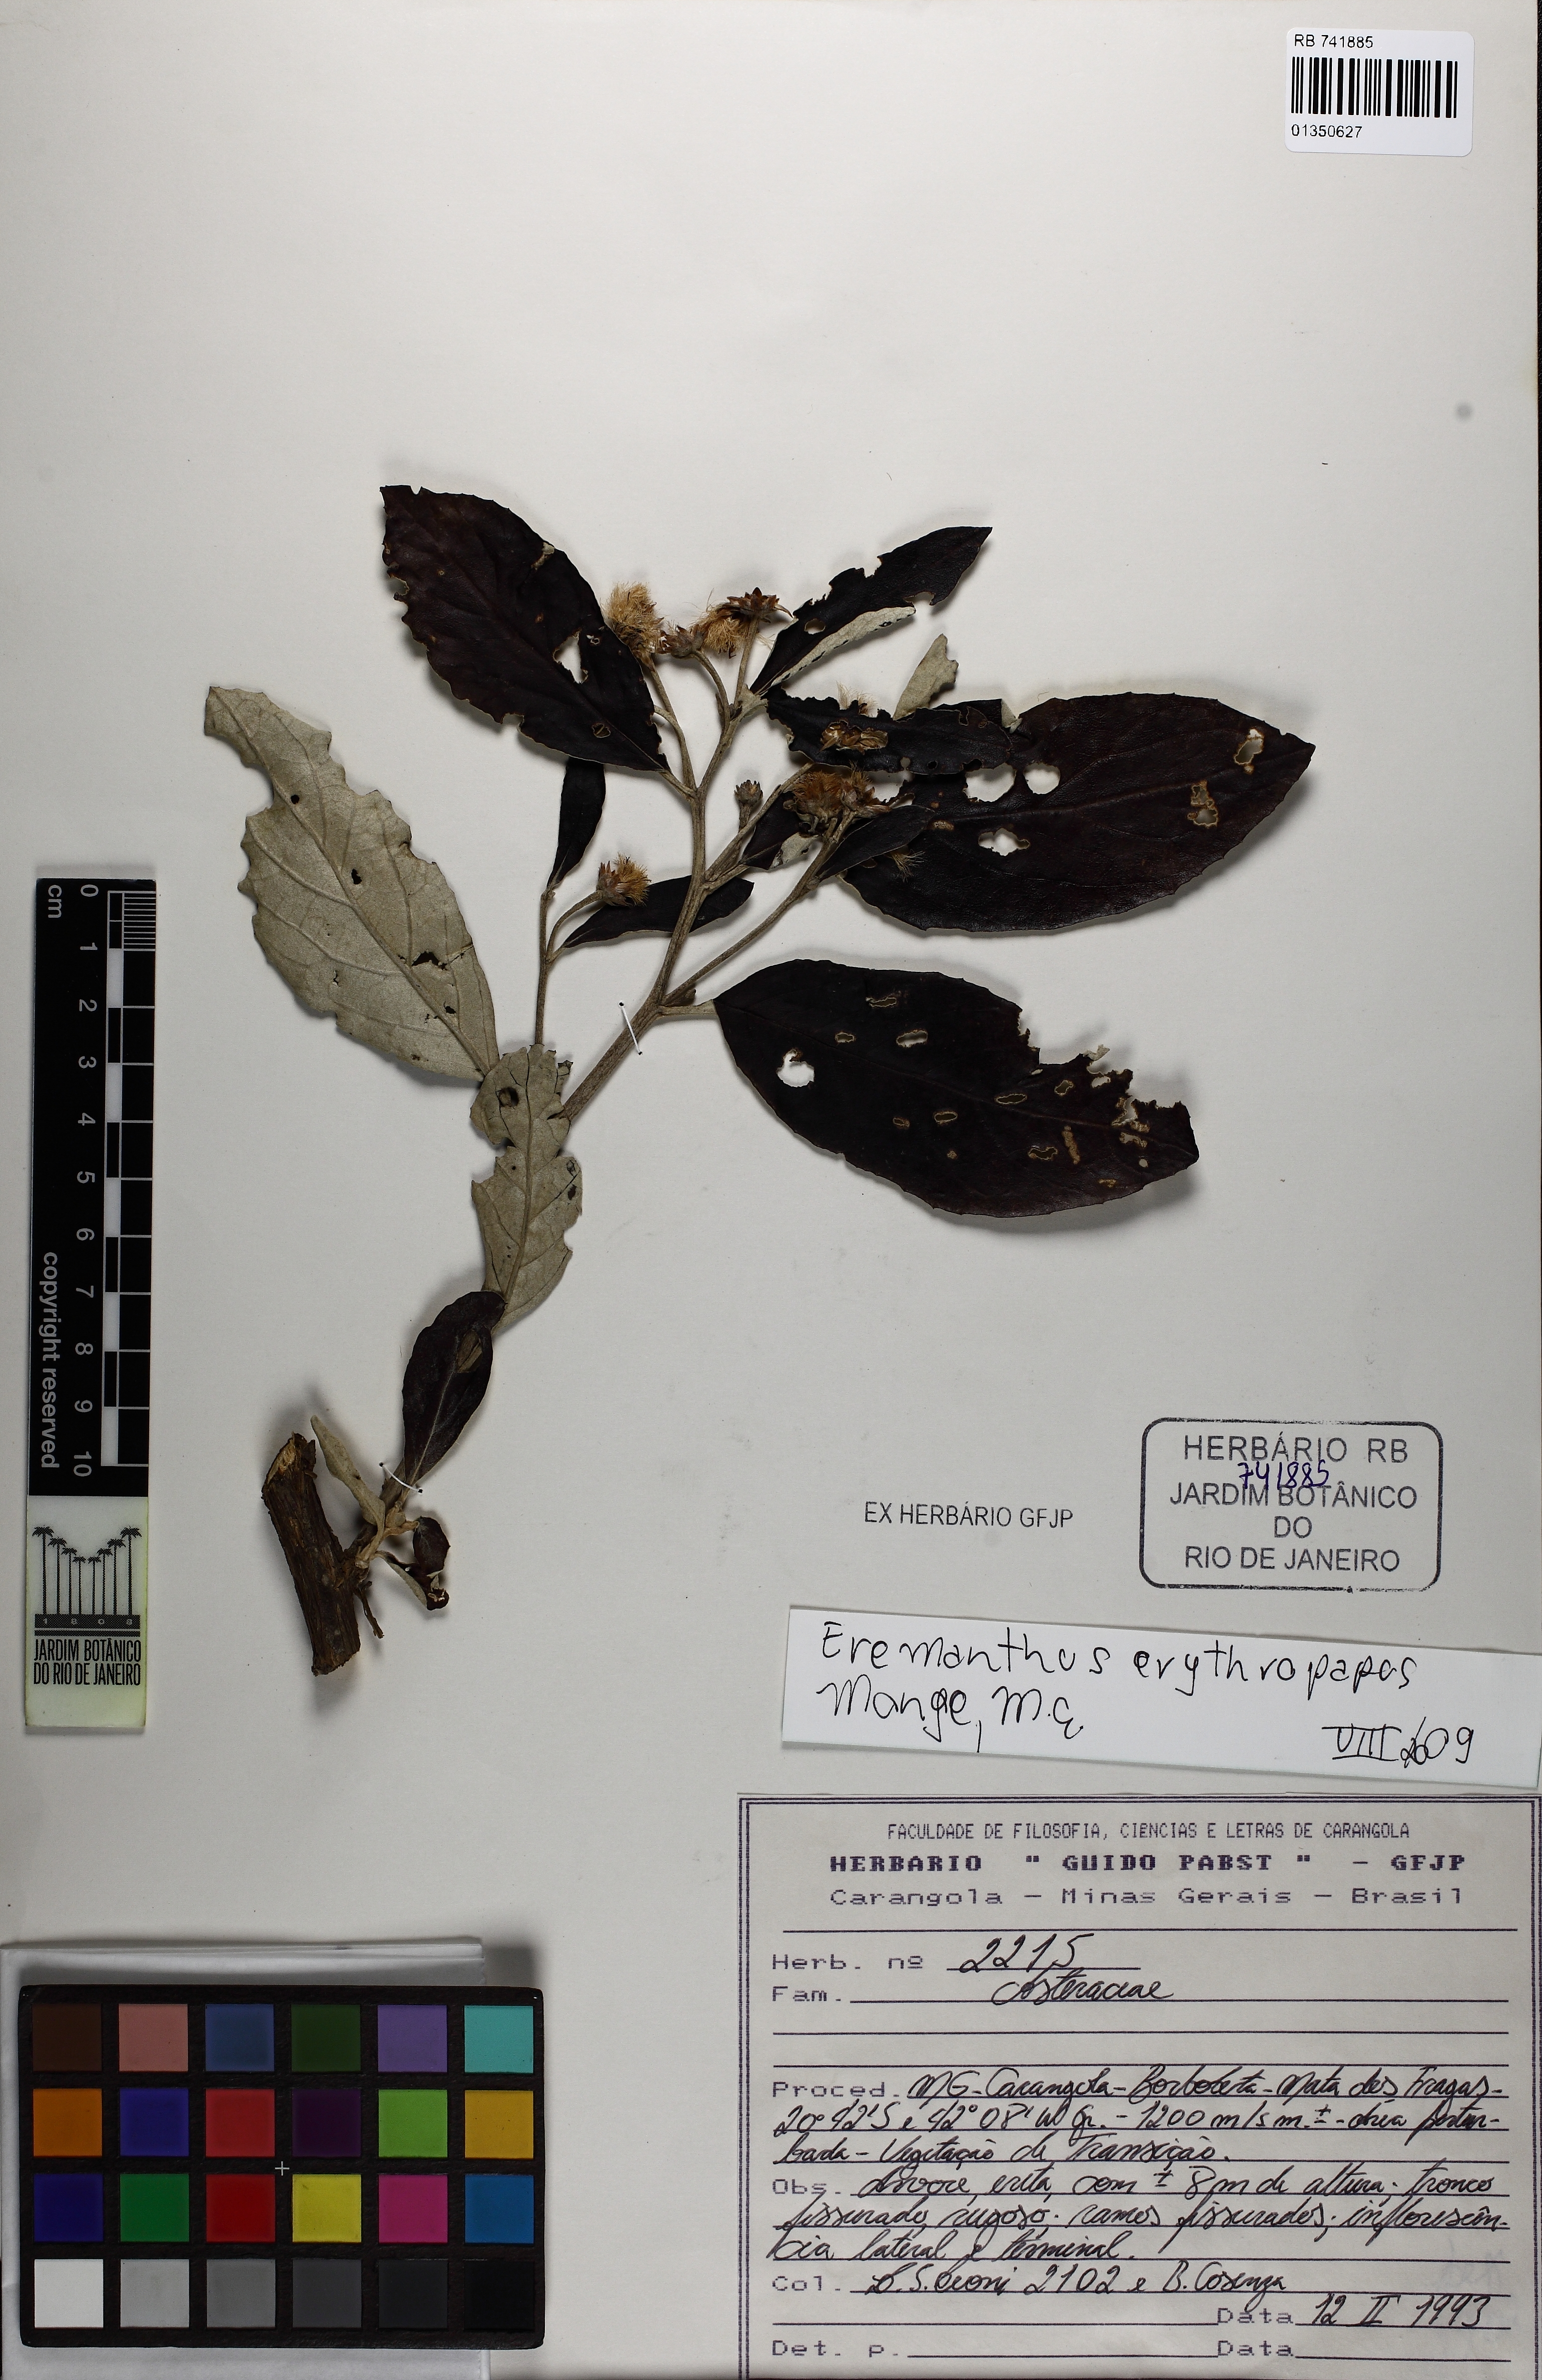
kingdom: Plantae
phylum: Tracheophyta
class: Magnoliopsida
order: Asterales
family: Asteraceae
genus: Eremanthus
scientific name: Eremanthus erythropappus
